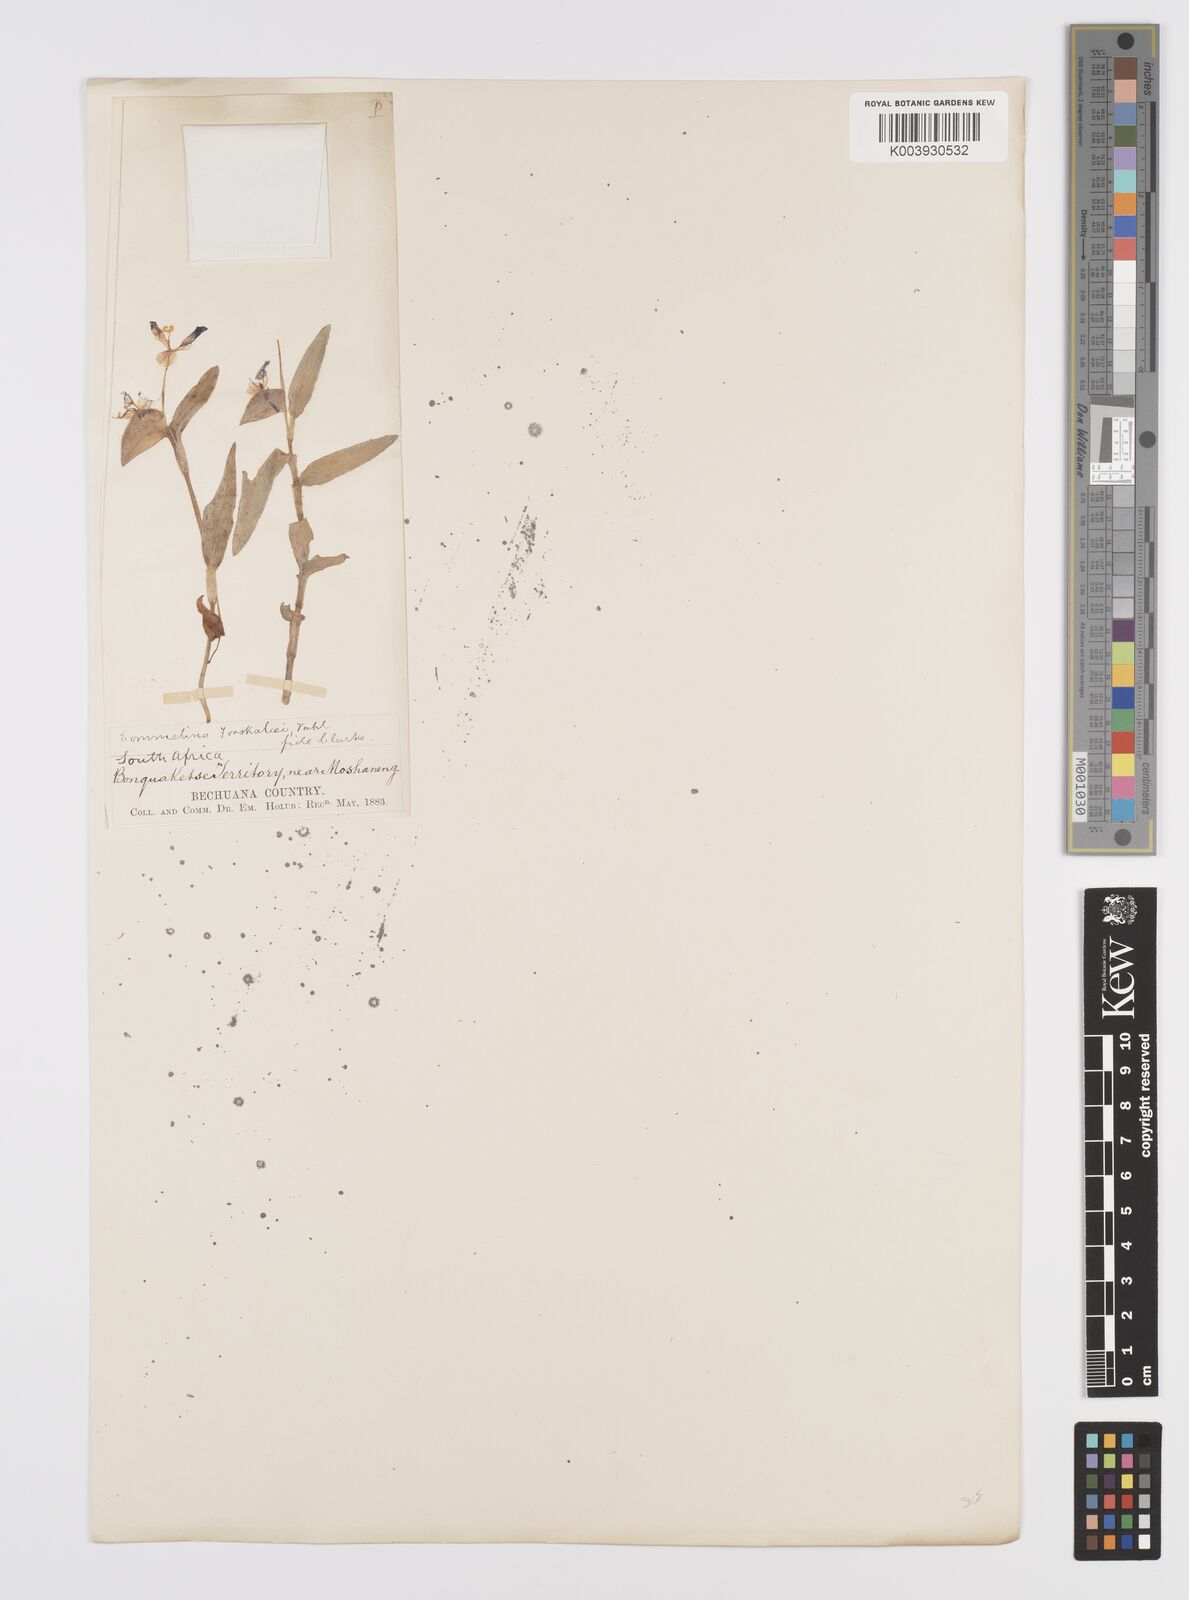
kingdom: Plantae
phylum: Tracheophyta
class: Liliopsida
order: Commelinales
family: Commelinaceae
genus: Commelina
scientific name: Commelina forskaolii
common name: Rat's ear
